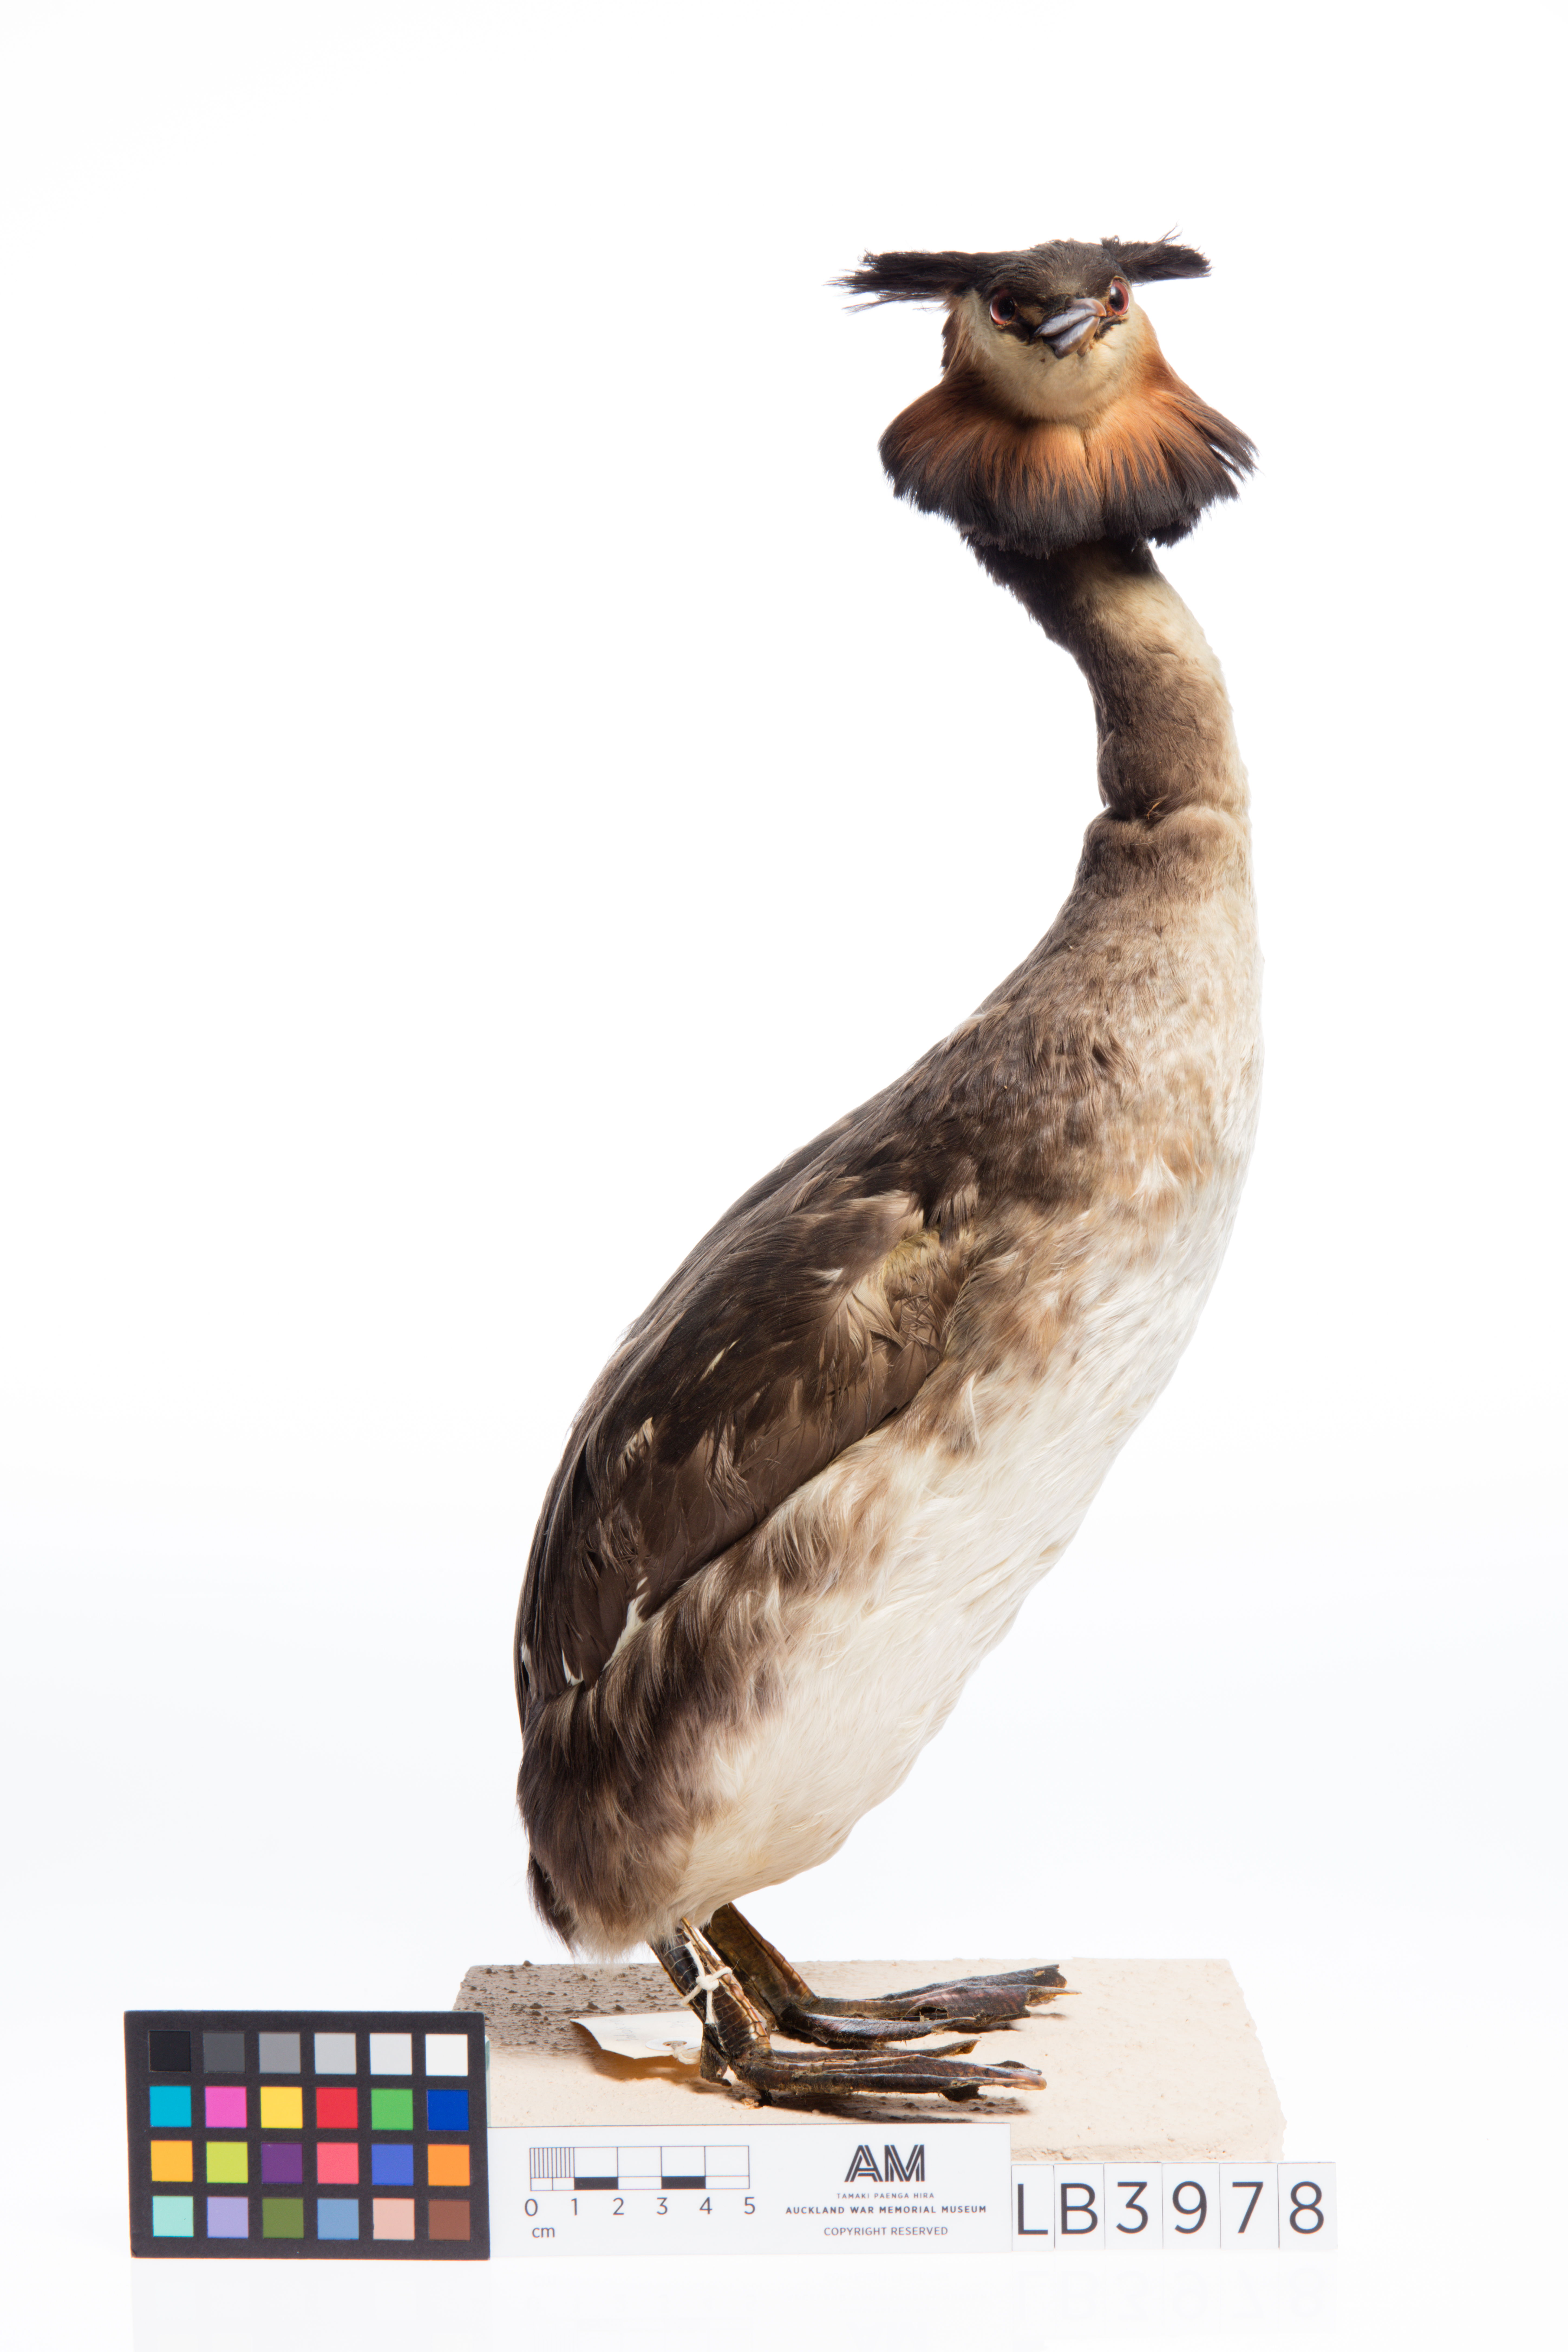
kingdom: Animalia
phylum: Chordata
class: Aves
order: Podicipediformes
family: Podicipedidae
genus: Podiceps
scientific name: Podiceps cristatus
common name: Great crested grebe
